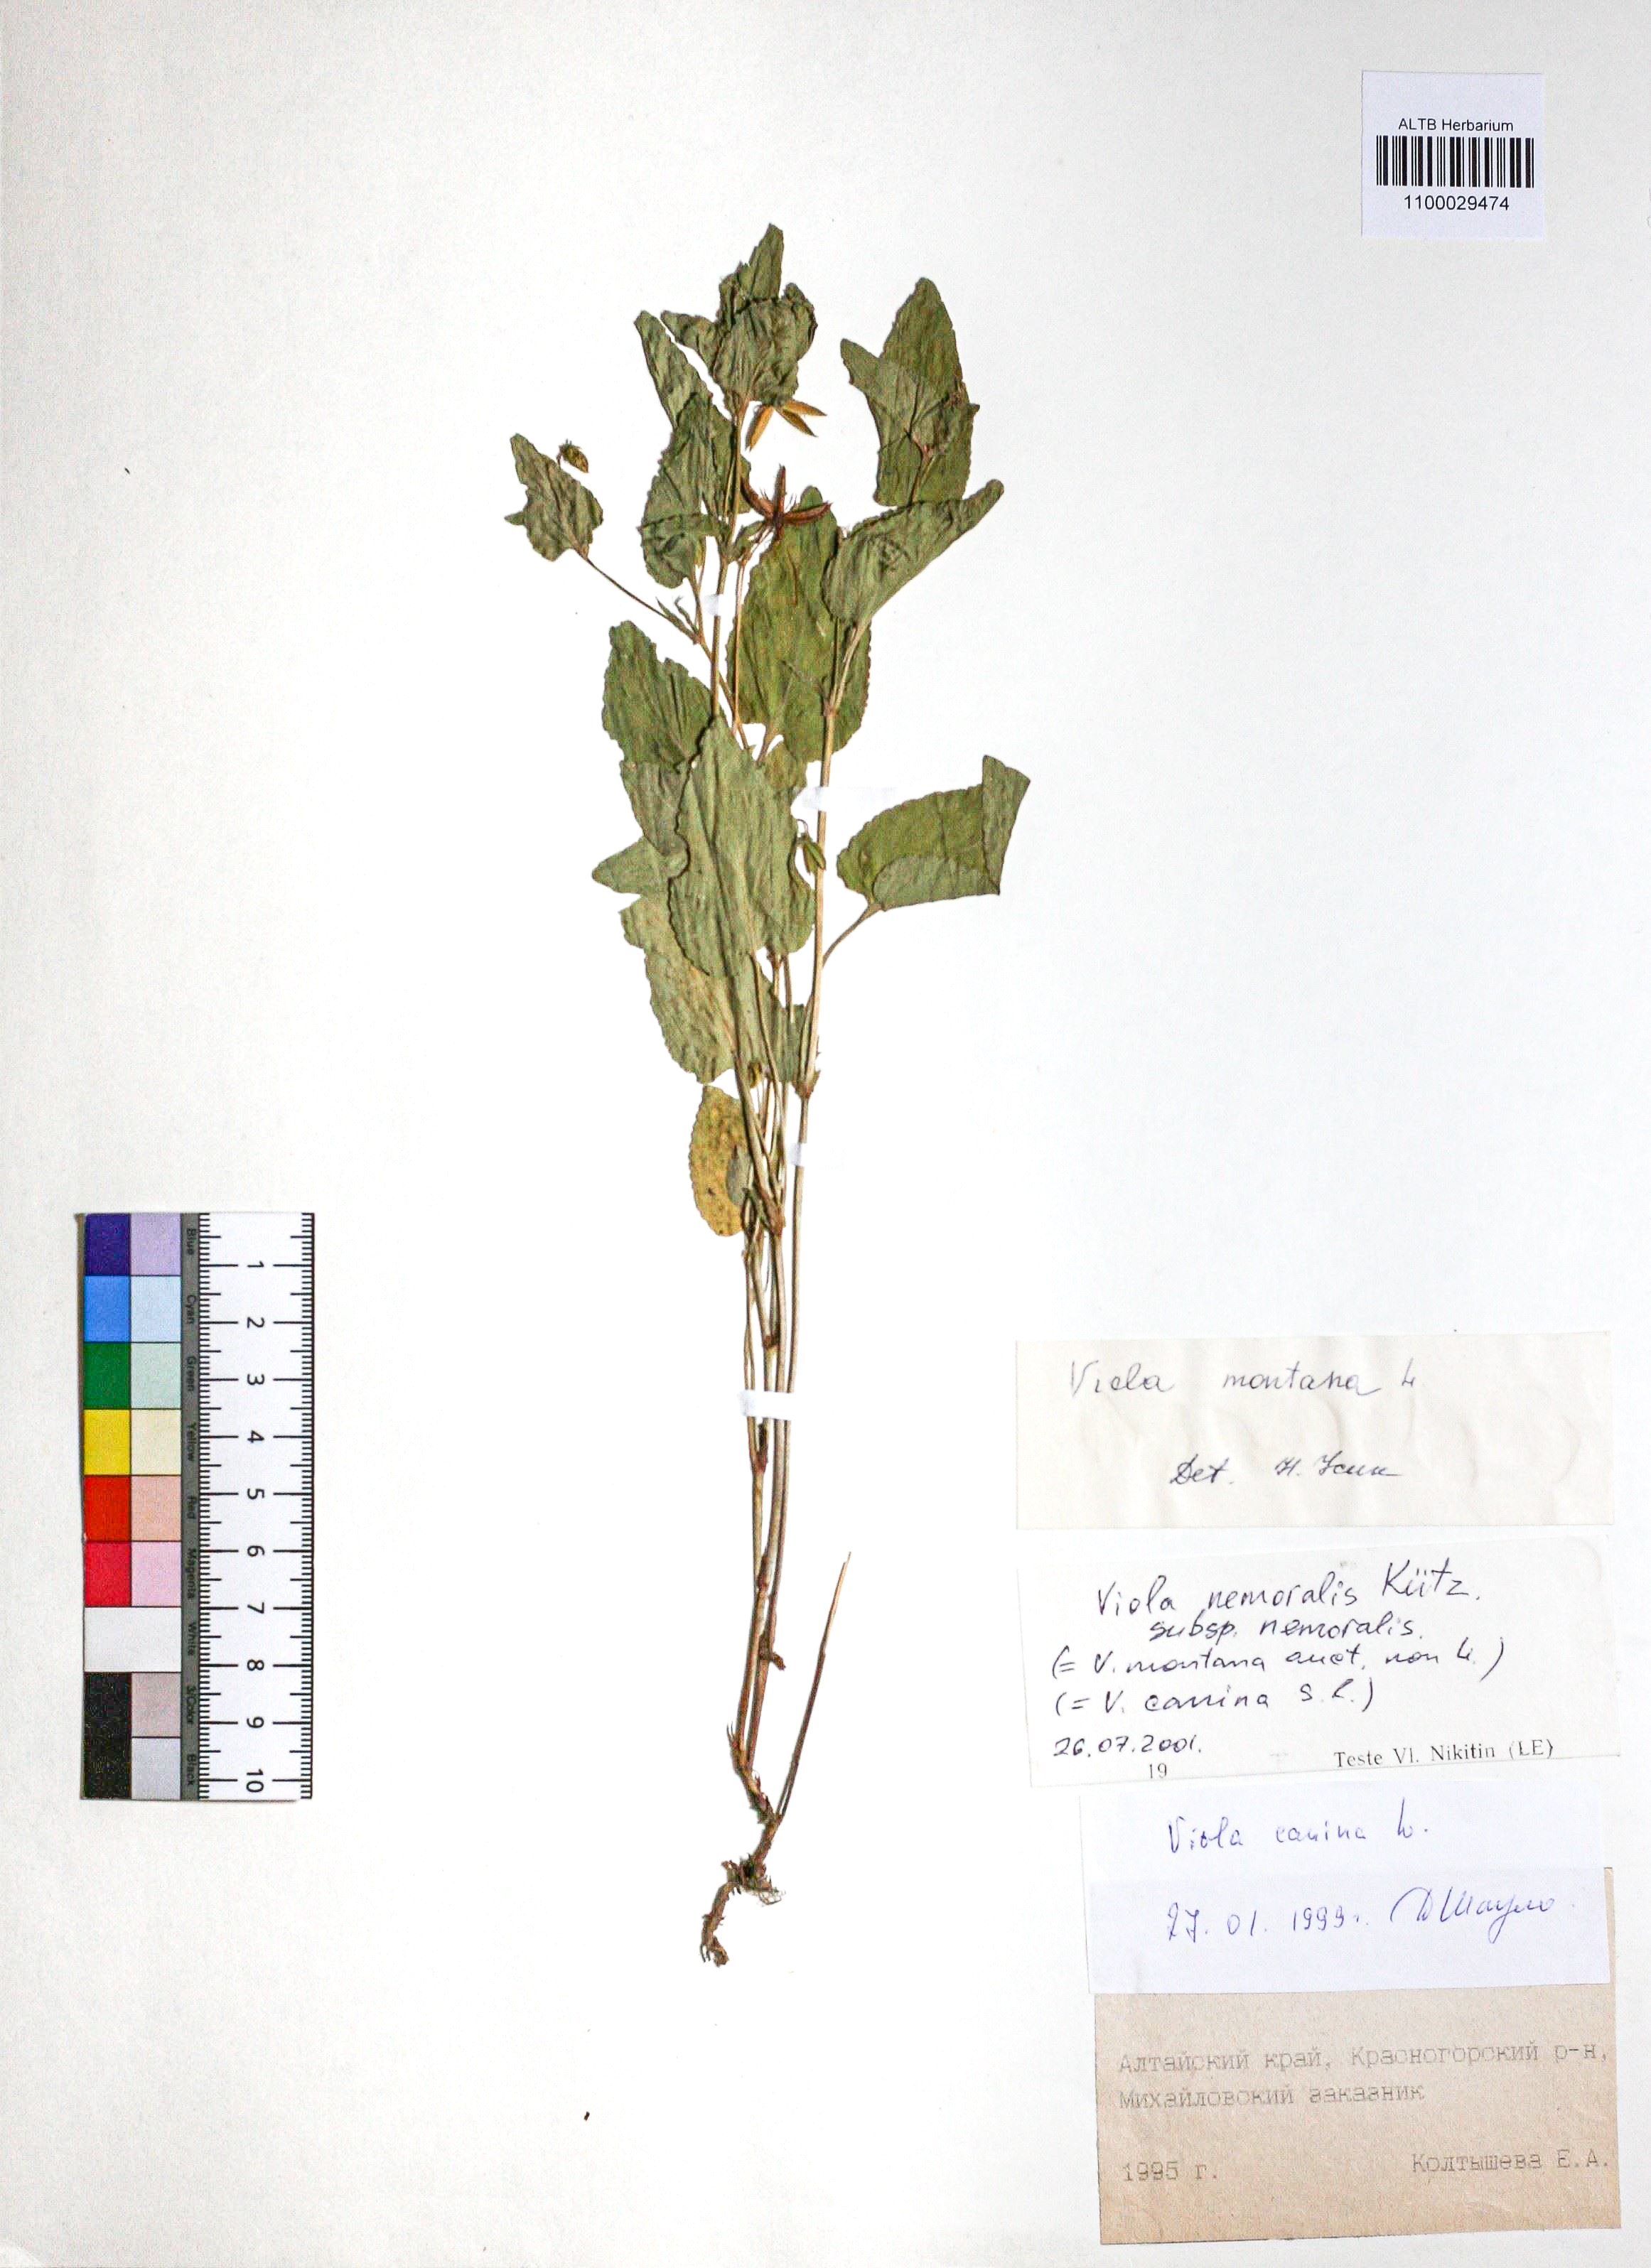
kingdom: Plantae
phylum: Tracheophyta
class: Magnoliopsida
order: Malpighiales
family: Violaceae
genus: Viola
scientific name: Viola ruppii
